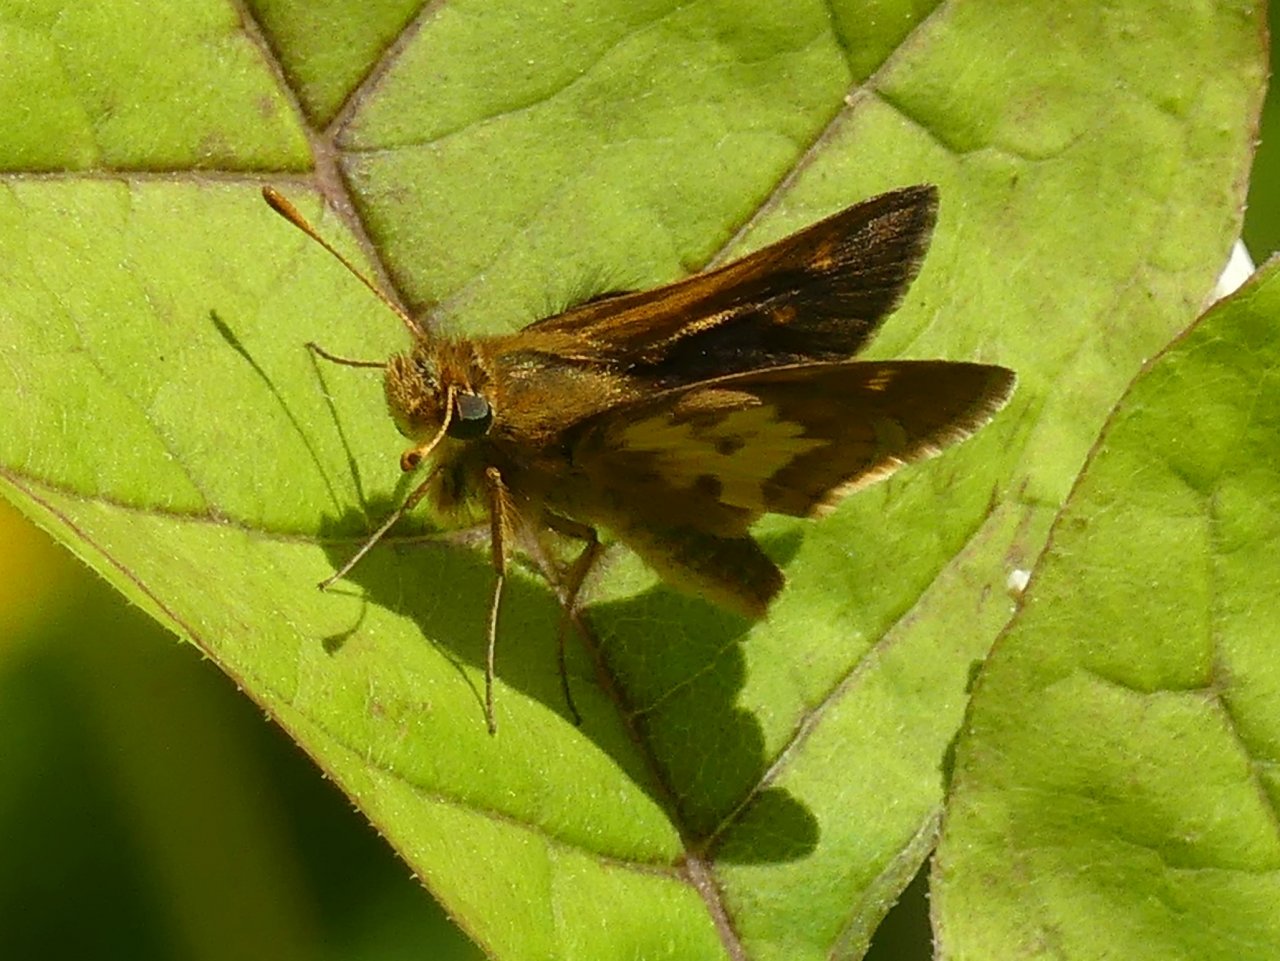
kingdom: Animalia
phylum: Arthropoda
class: Insecta
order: Lepidoptera
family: Hesperiidae
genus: Polites
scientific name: Polites coras
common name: Peck's Skipper
